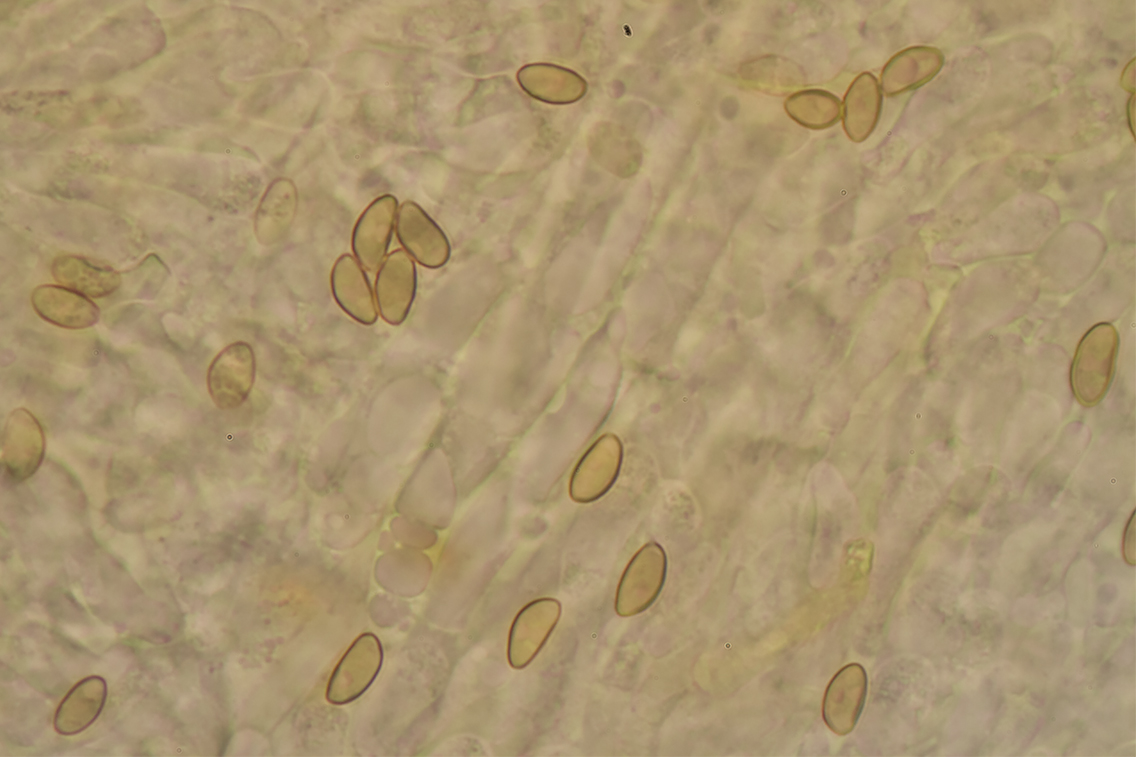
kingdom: Fungi
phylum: Basidiomycota
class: Agaricomycetes
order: Agaricales
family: Tubariaceae
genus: Flammulaster
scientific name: Flammulaster limulatus
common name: gylden grynskælhat
